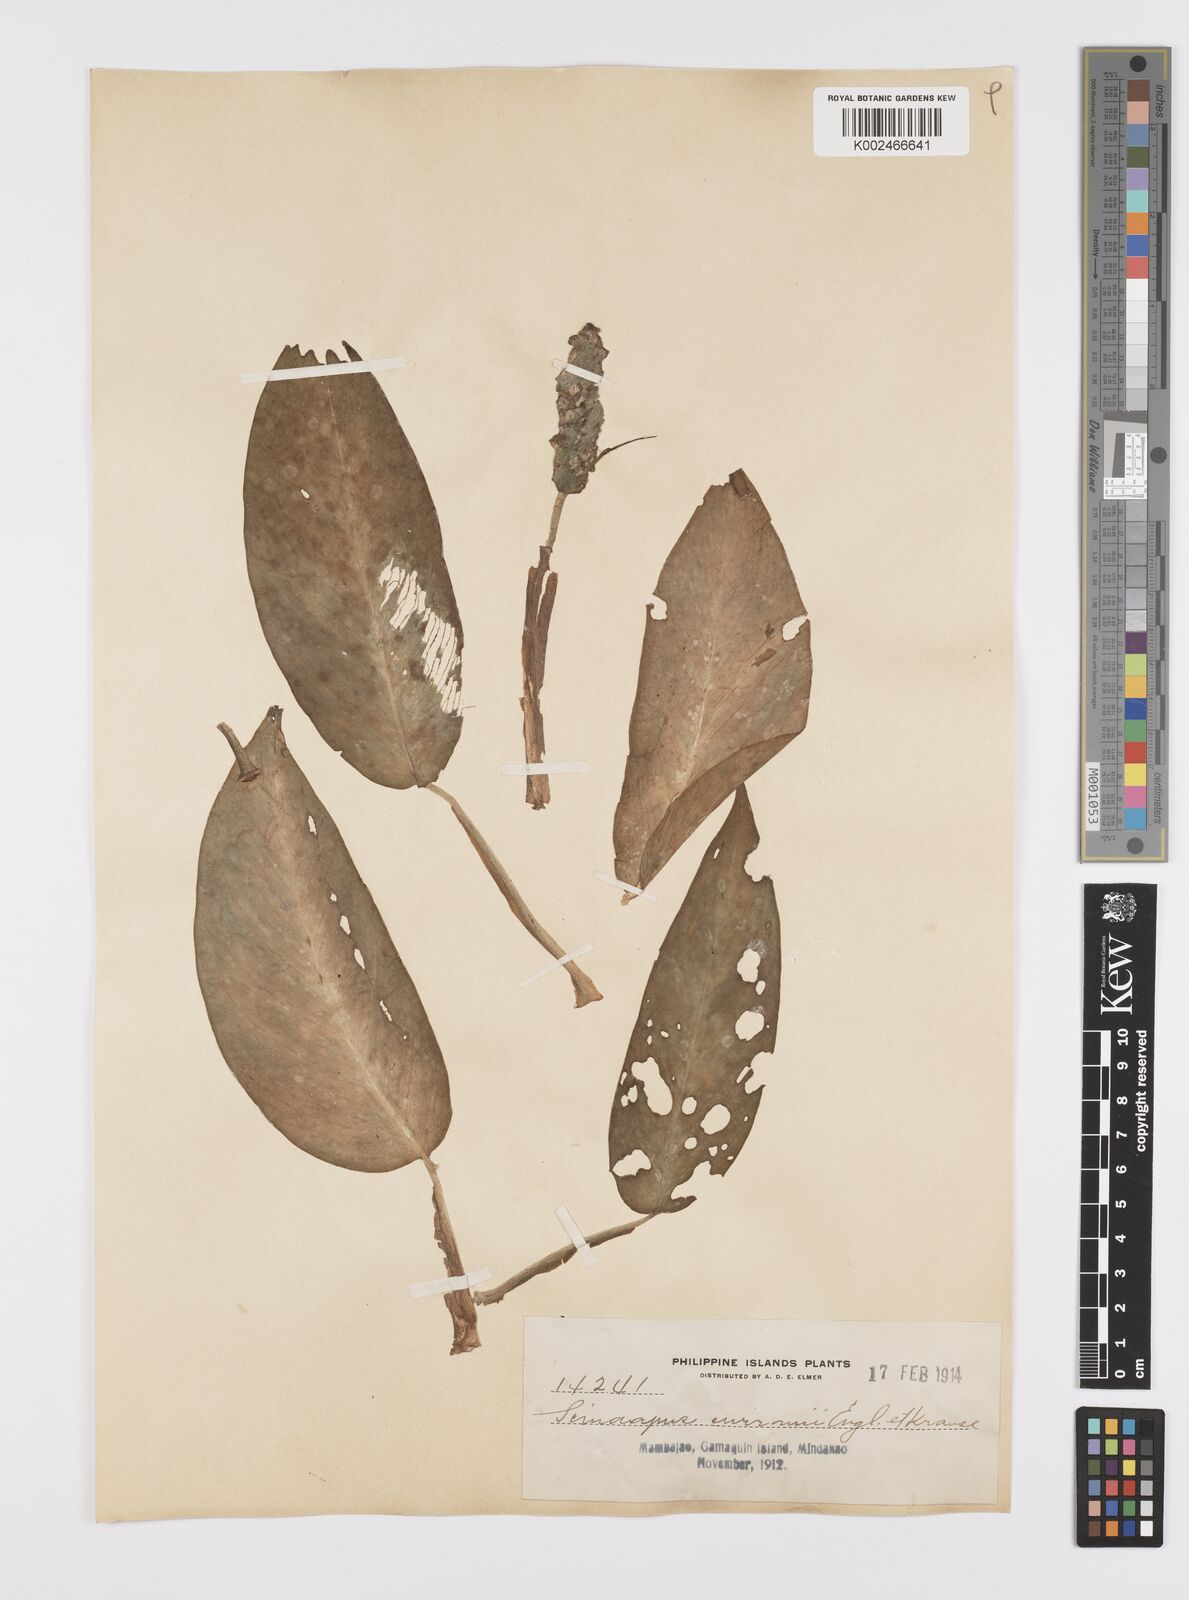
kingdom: Plantae
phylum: Tracheophyta
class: Liliopsida
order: Alismatales
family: Araceae
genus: Scindapsus
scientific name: Scindapsus curranii
